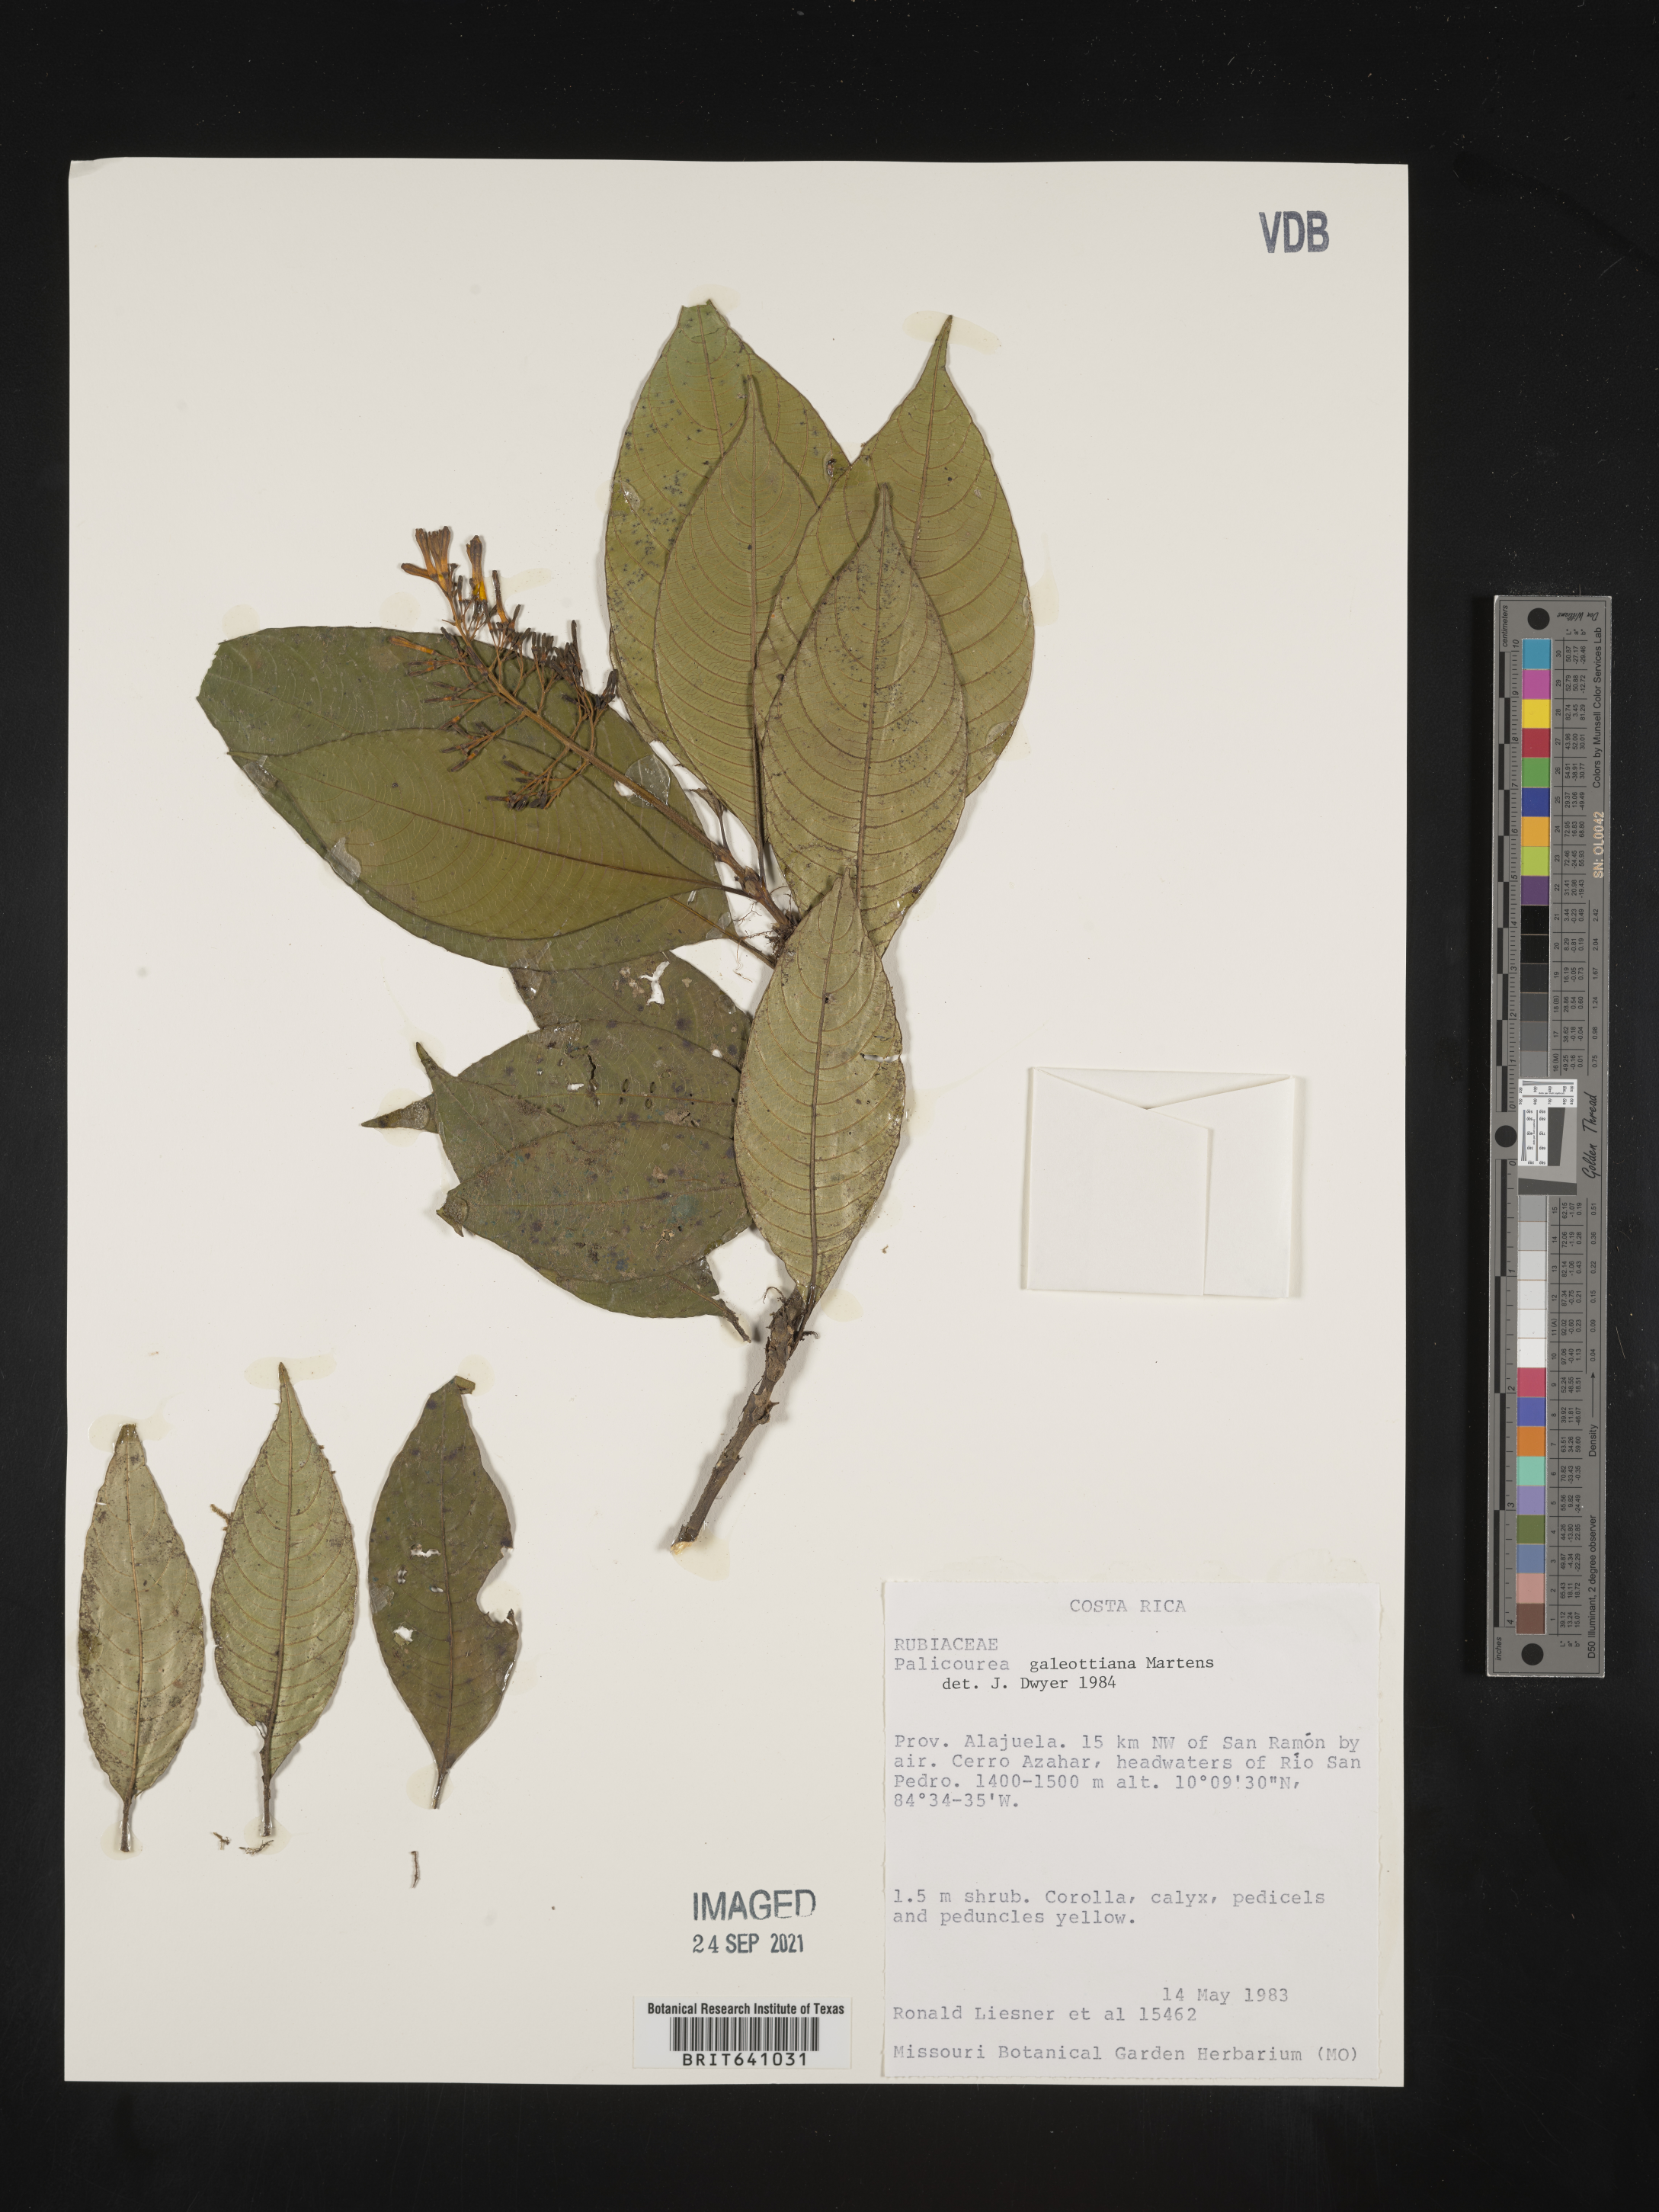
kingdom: Plantae
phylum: Tracheophyta
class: Magnoliopsida
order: Gentianales
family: Rubiaceae
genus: Palicourea
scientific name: Palicourea
